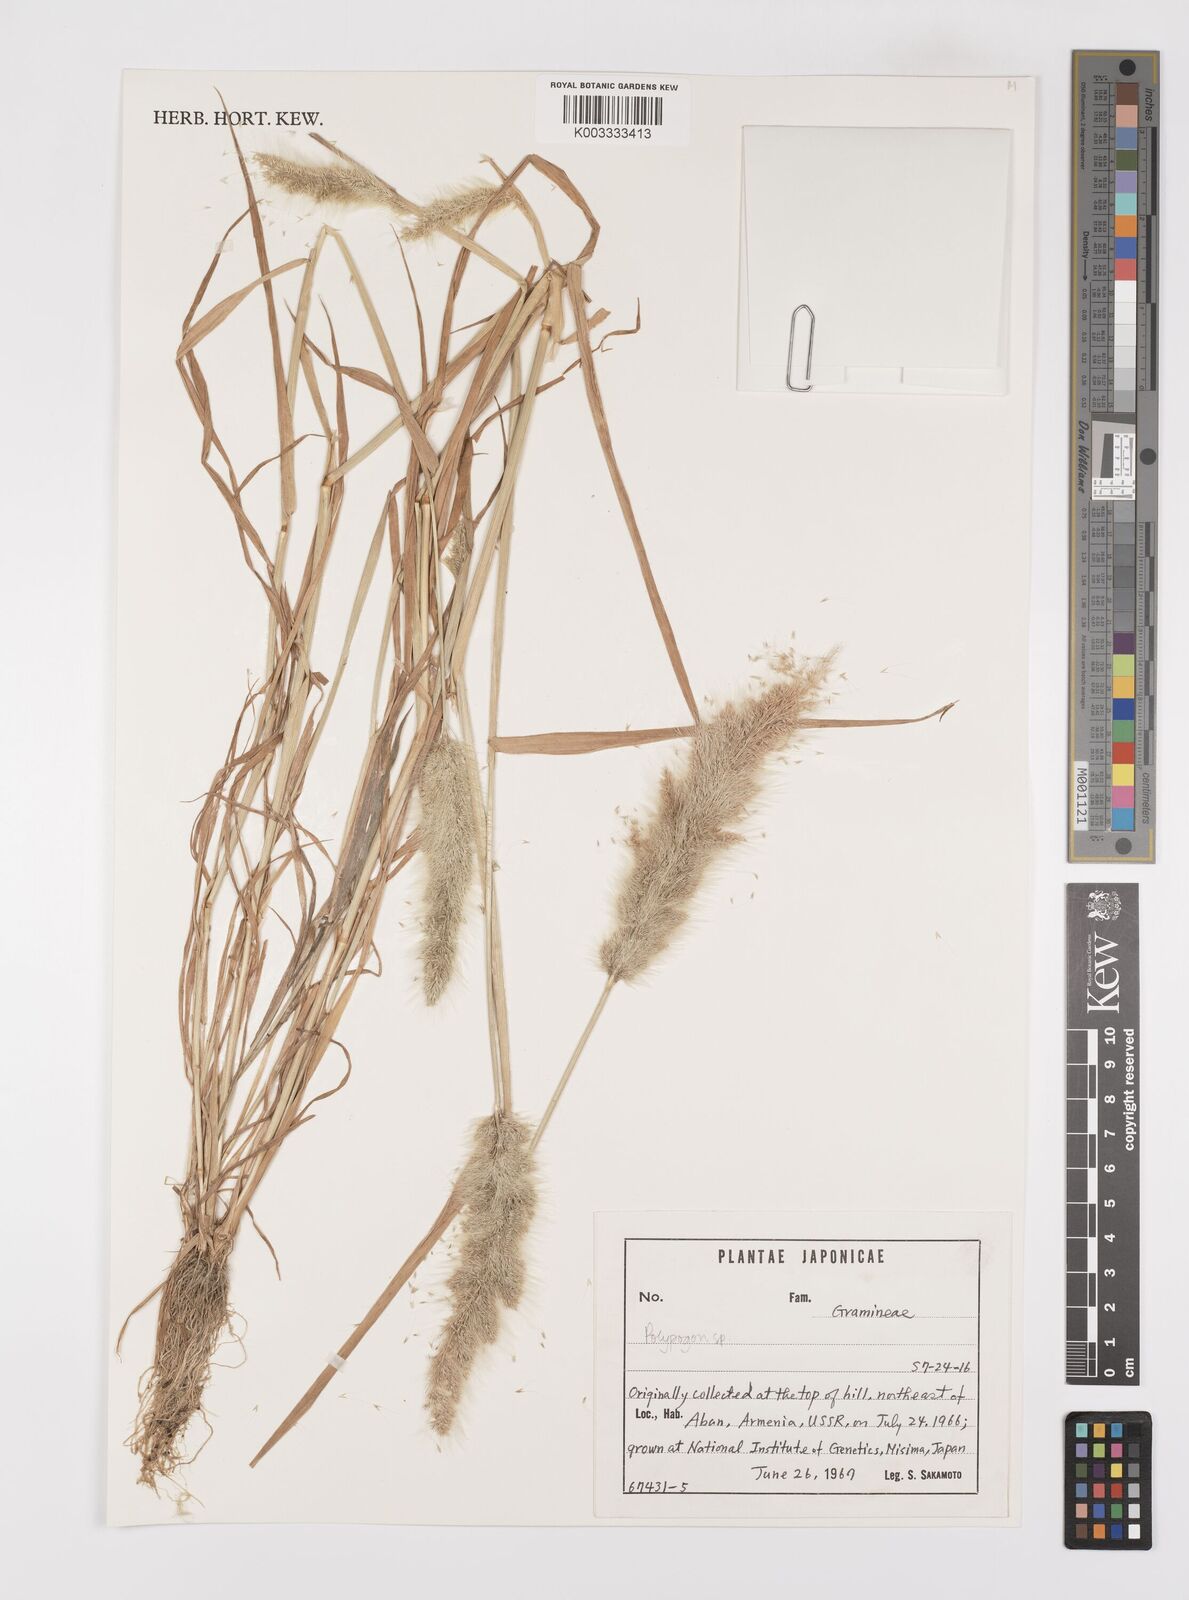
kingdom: Plantae
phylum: Tracheophyta
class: Liliopsida
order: Poales
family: Poaceae
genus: Polypogon
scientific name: Polypogon monspeliensis
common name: Annual rabbitsfoot grass
